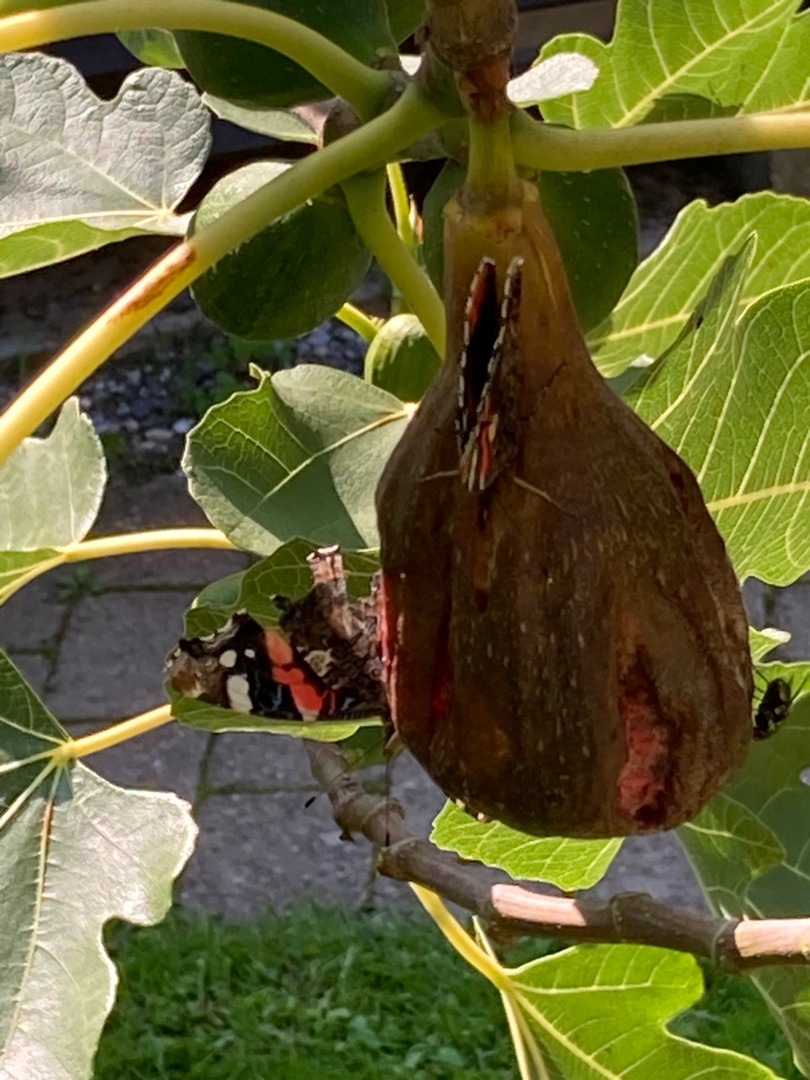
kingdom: Animalia
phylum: Arthropoda
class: Insecta
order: Lepidoptera
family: Nymphalidae
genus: Vanessa
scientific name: Vanessa atalanta
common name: Admiral
